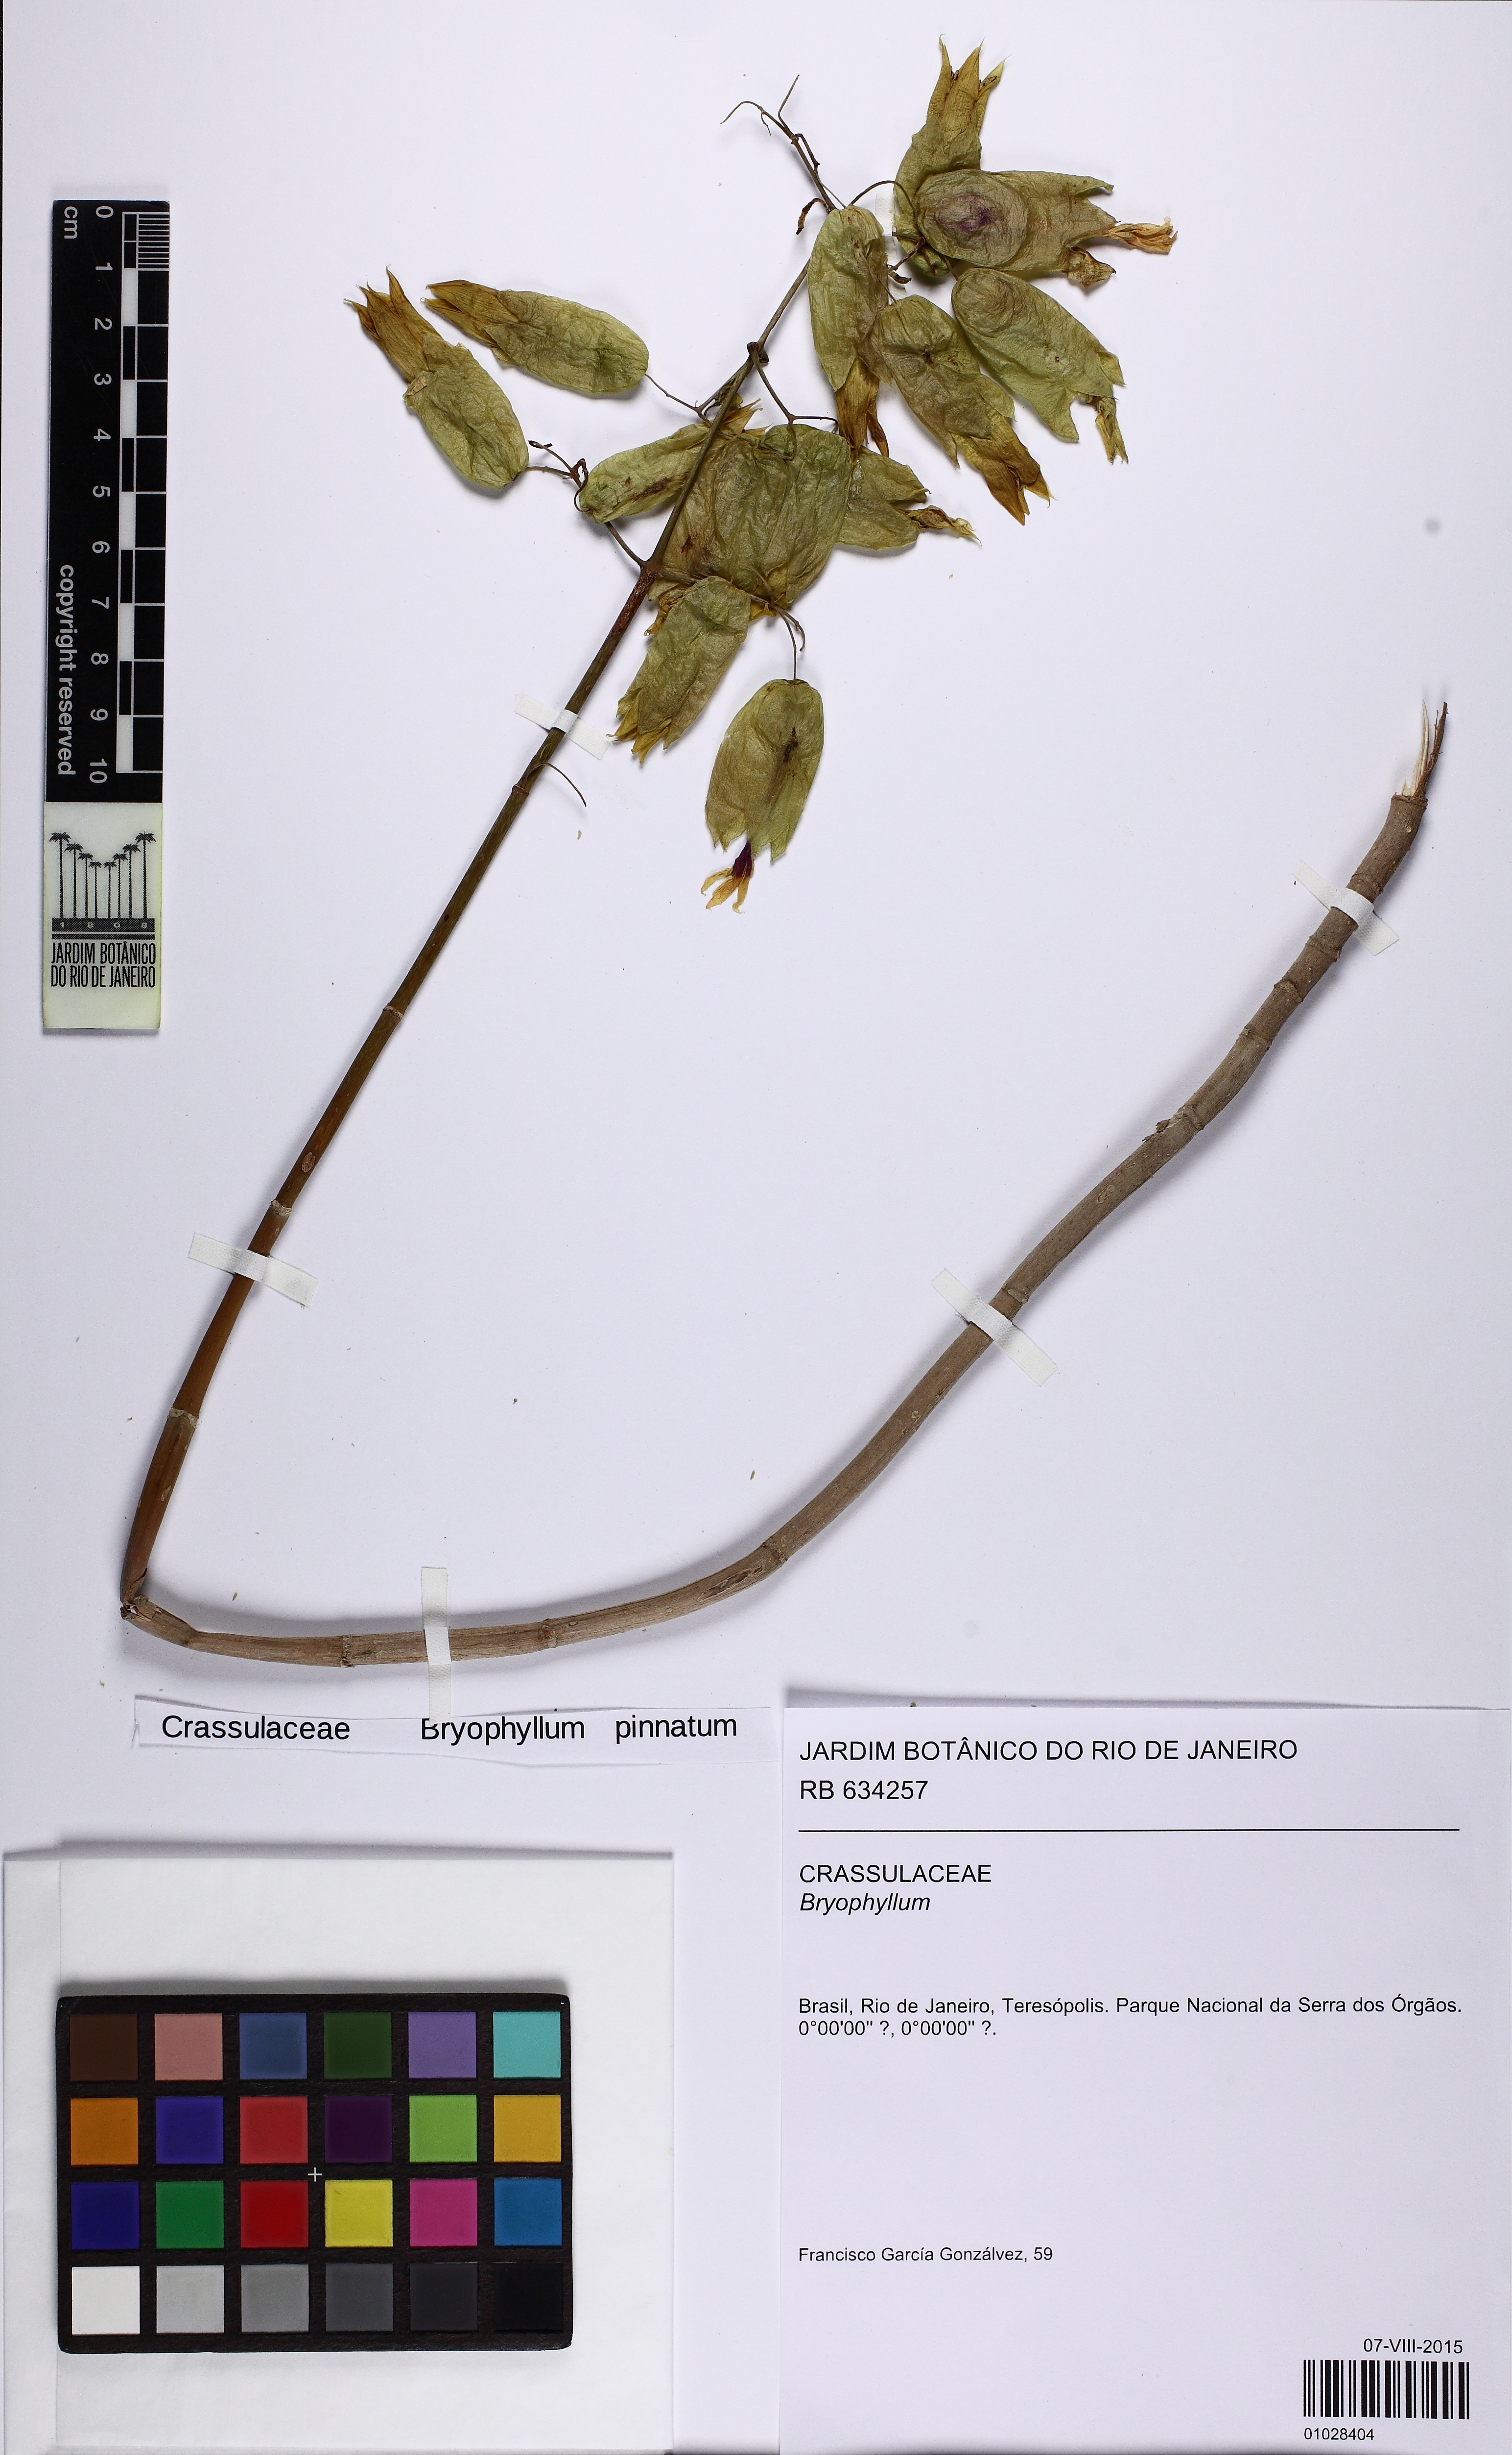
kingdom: Plantae
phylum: Tracheophyta
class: Magnoliopsida
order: Saxifragales
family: Crassulaceae
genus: Kalanchoe
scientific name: Kalanchoe pinnata
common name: Cathedral bells
